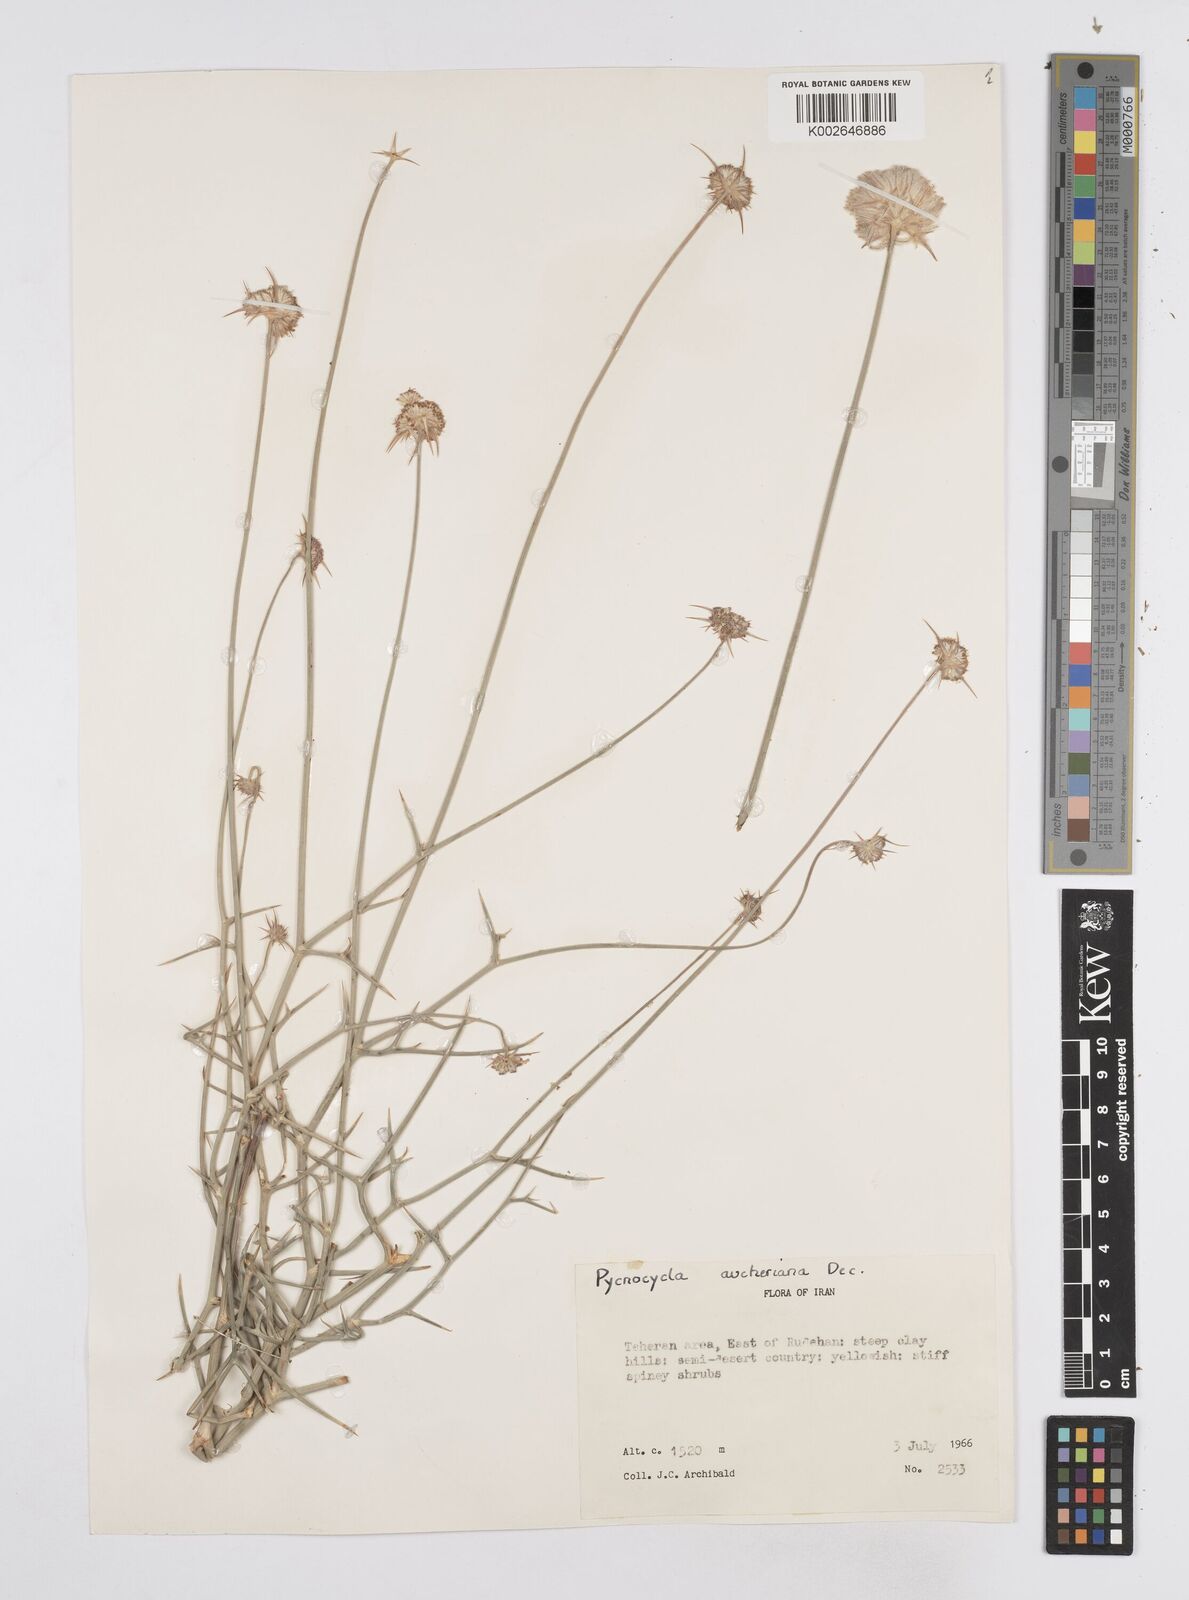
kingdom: Plantae
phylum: Tracheophyta
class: Magnoliopsida
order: Apiales
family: Apiaceae
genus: Pycnocycla
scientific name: Pycnocycla aucheriana
